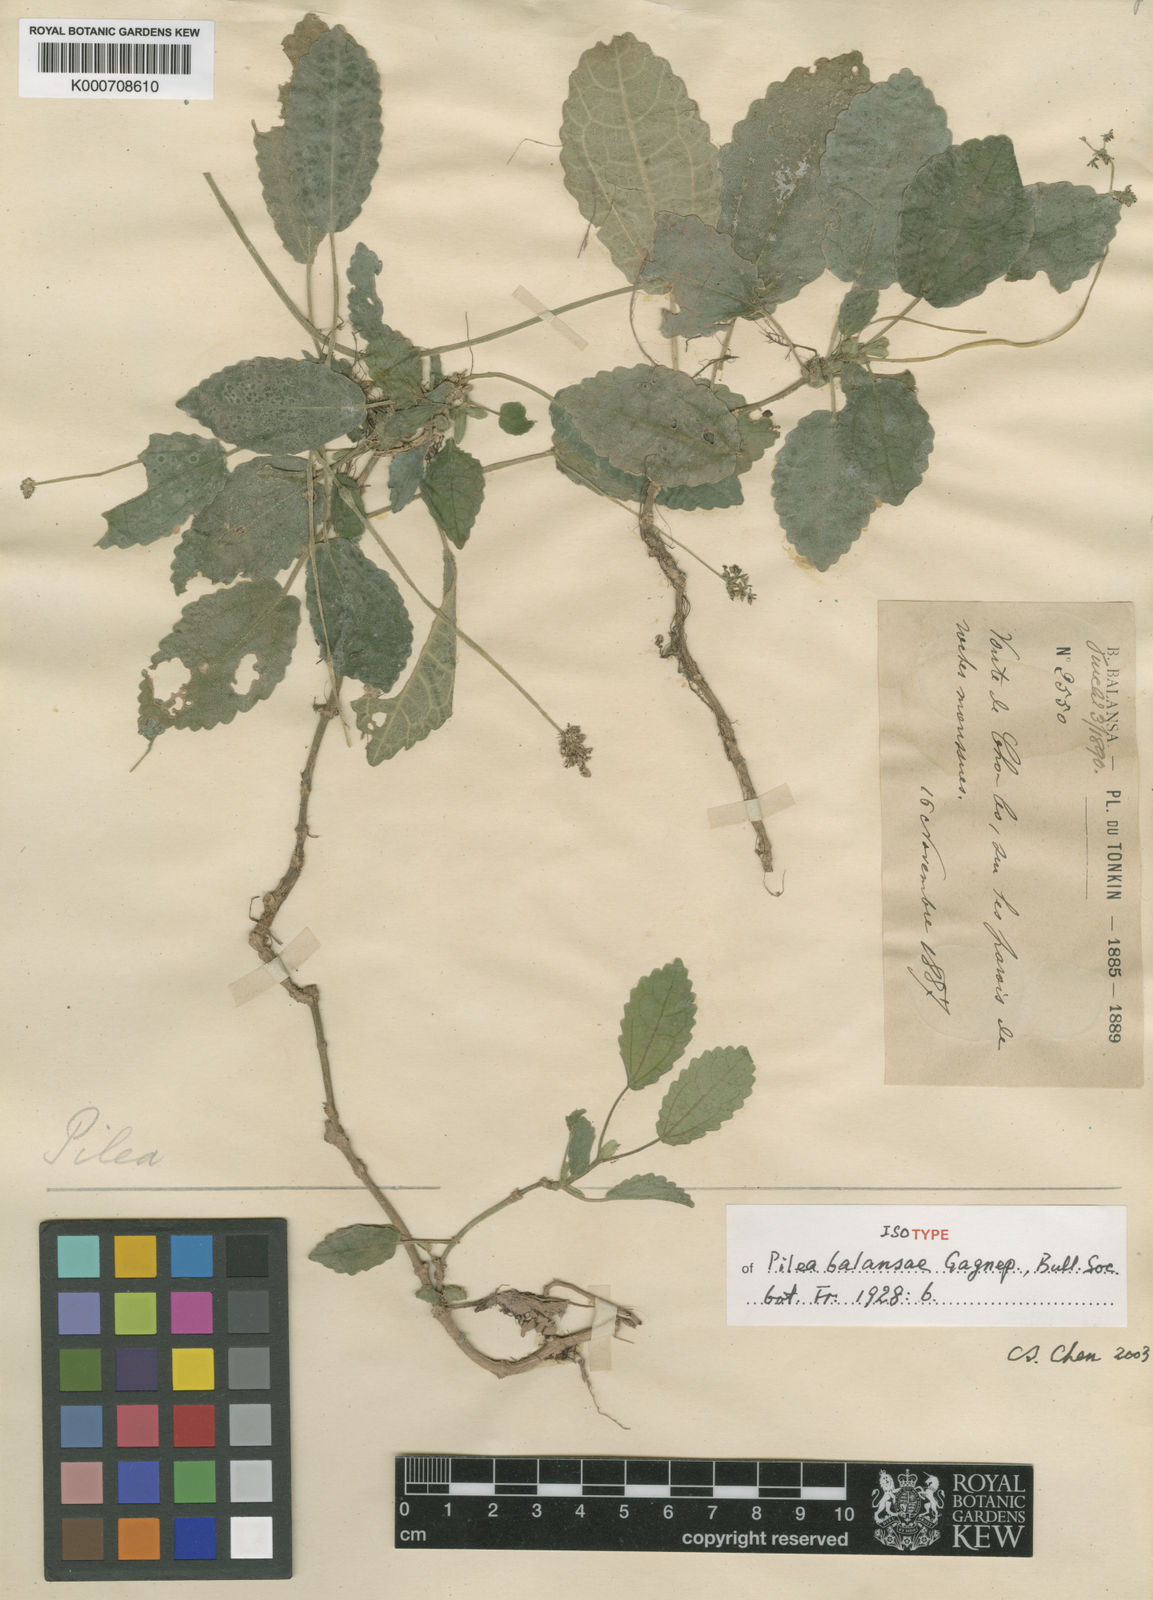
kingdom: Plantae
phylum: Tracheophyta
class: Magnoliopsida
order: Rosales
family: Urticaceae
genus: Pilea
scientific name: Pilea balansae
